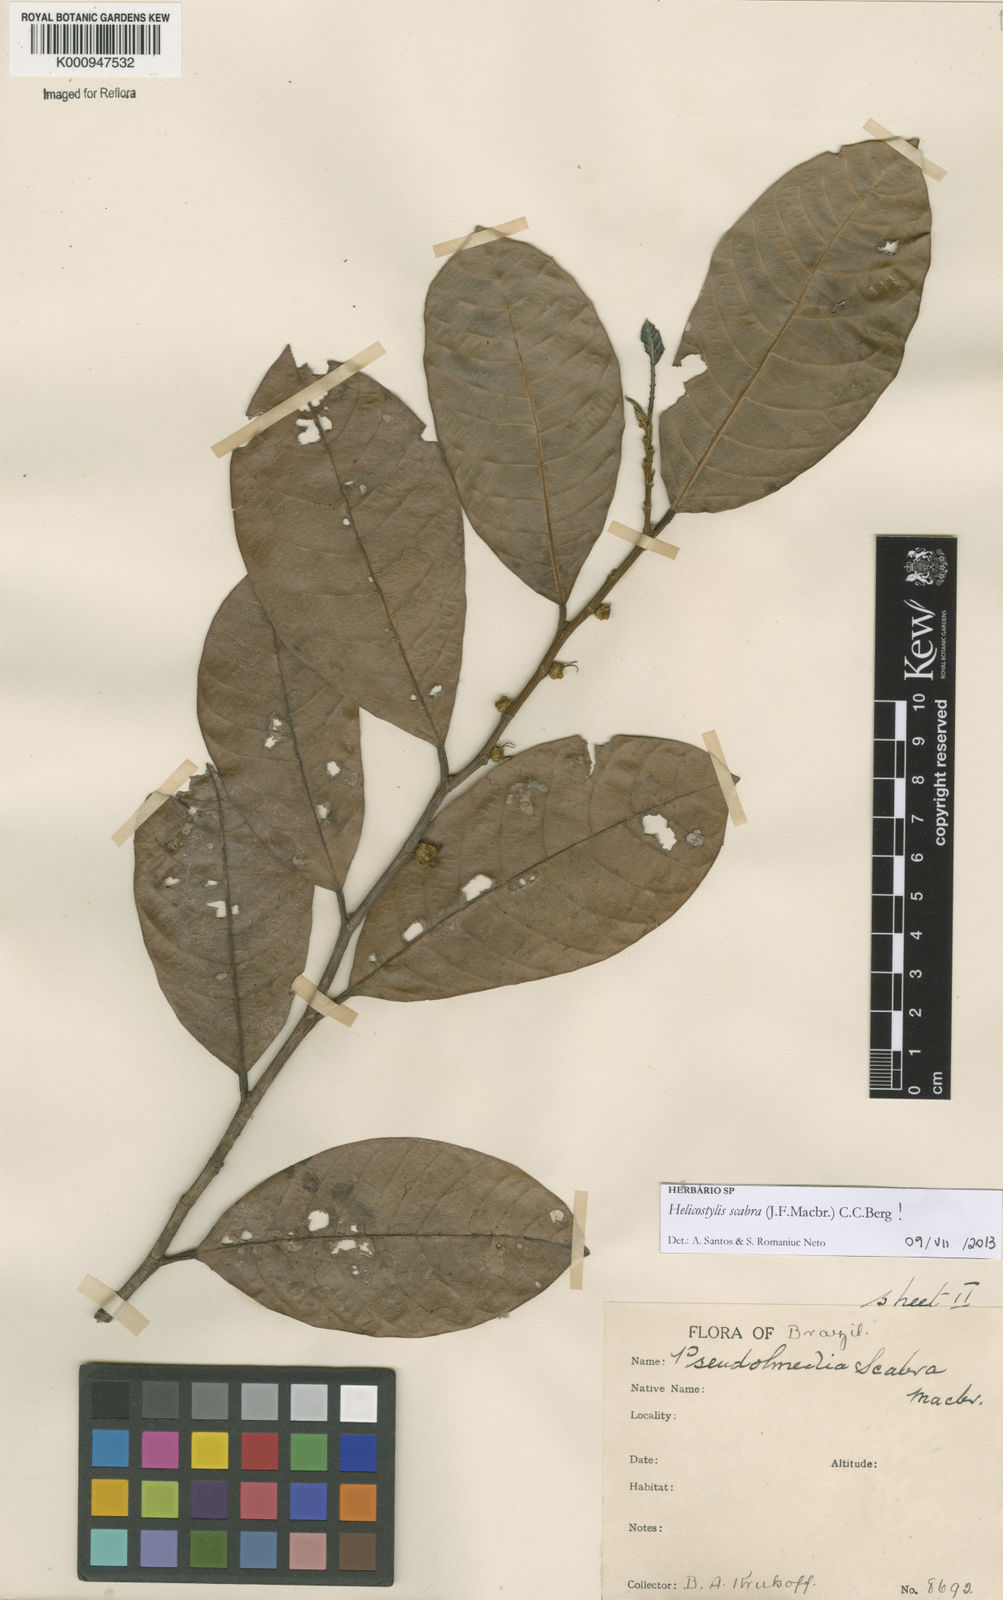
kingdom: Plantae
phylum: Tracheophyta
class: Magnoliopsida
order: Rosales
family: Moraceae
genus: Helicostylis
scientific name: Helicostylis scabra
